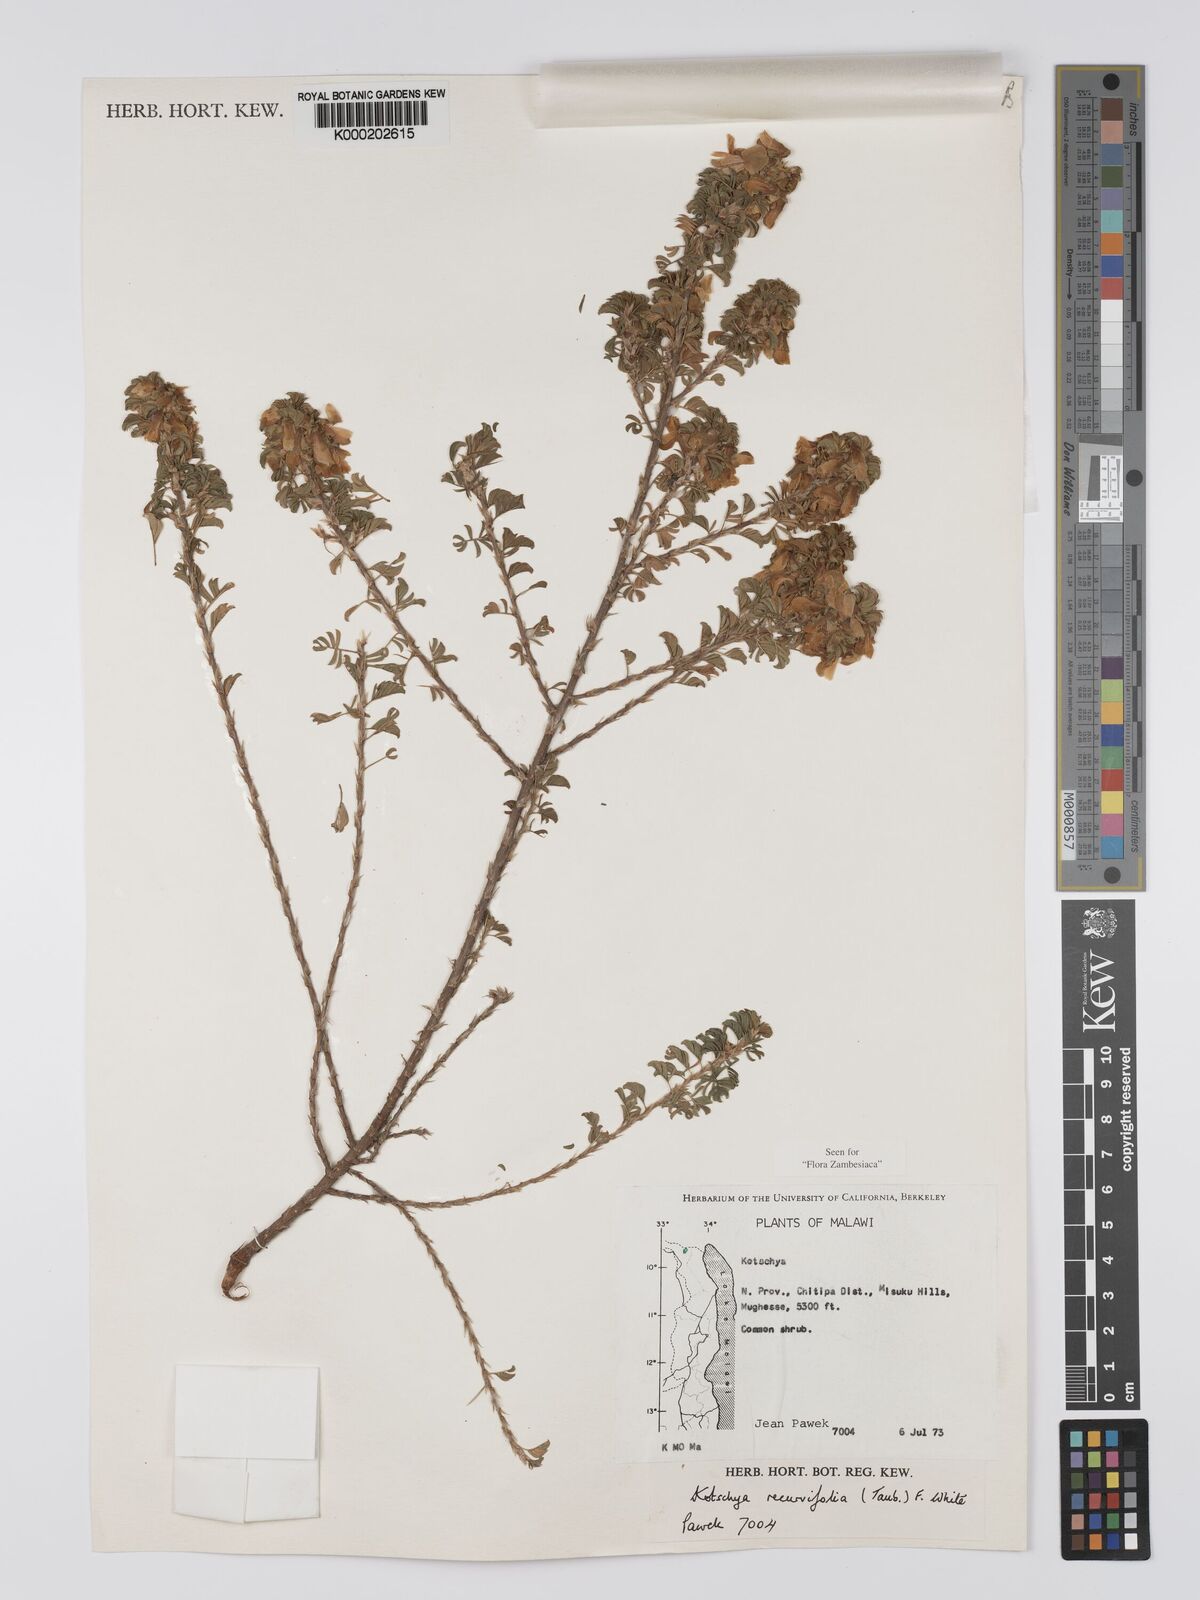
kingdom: Plantae
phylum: Tracheophyta
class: Magnoliopsida
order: Fabales
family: Fabaceae
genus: Kotschya
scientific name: Kotschya recurvifolia
